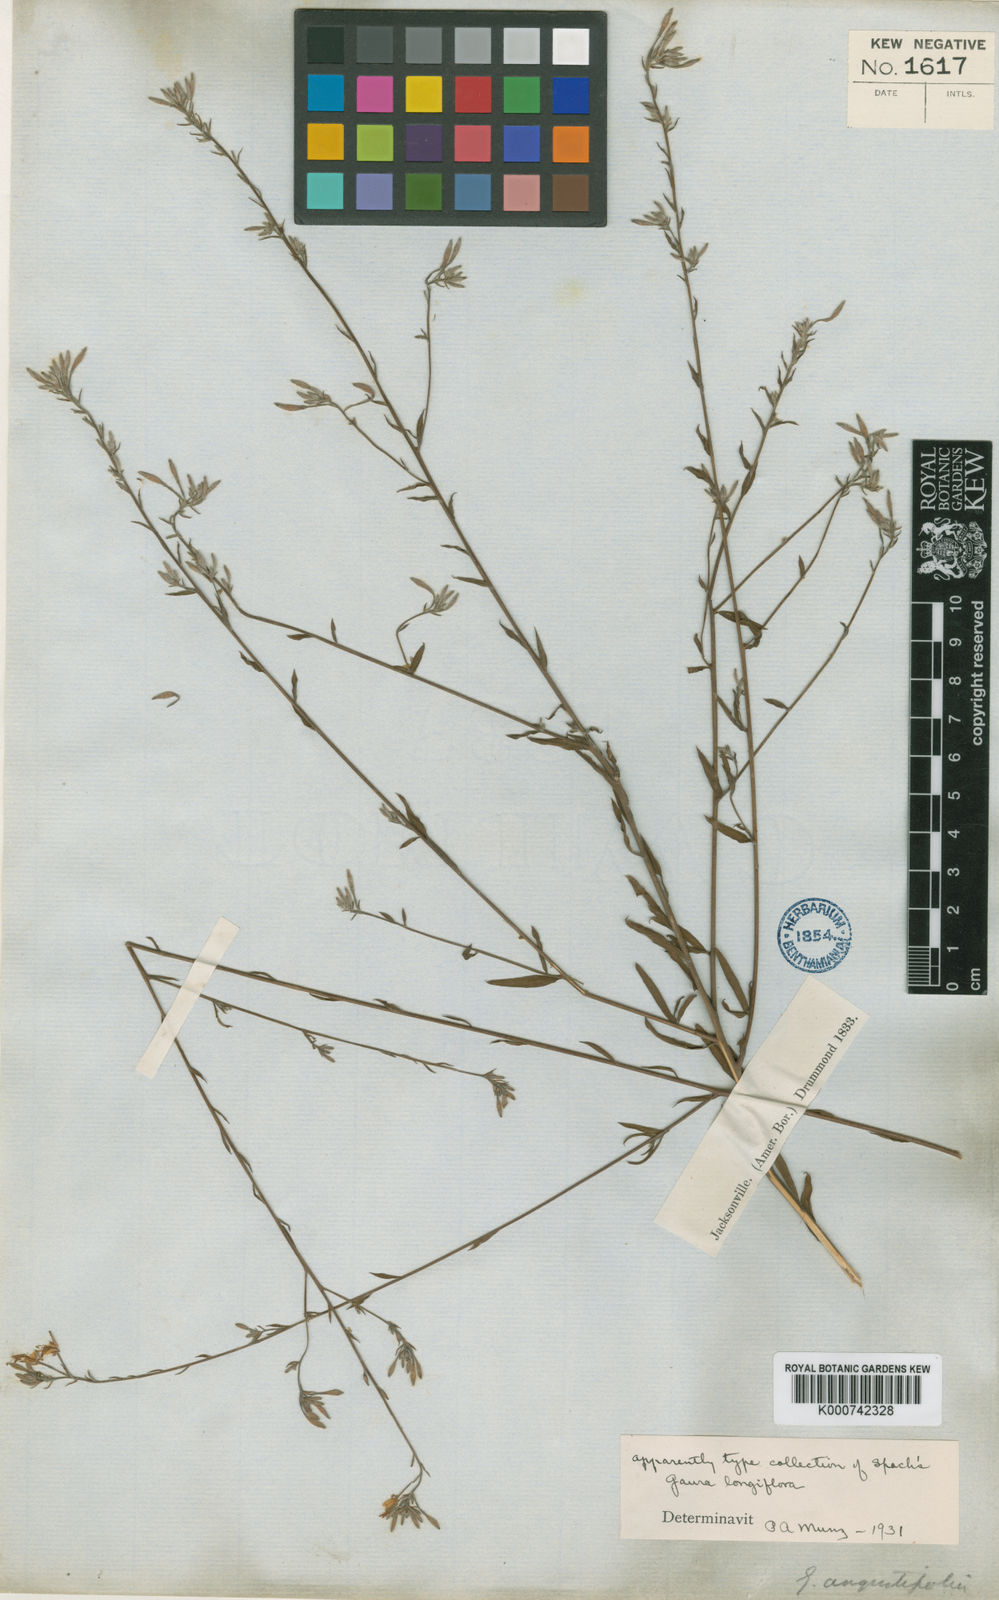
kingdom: Plantae
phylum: Tracheophyta
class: Magnoliopsida
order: Myrtales
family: Onagraceae
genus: Oenothera
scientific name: Oenothera filiformis
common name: Longflower beeblossom
